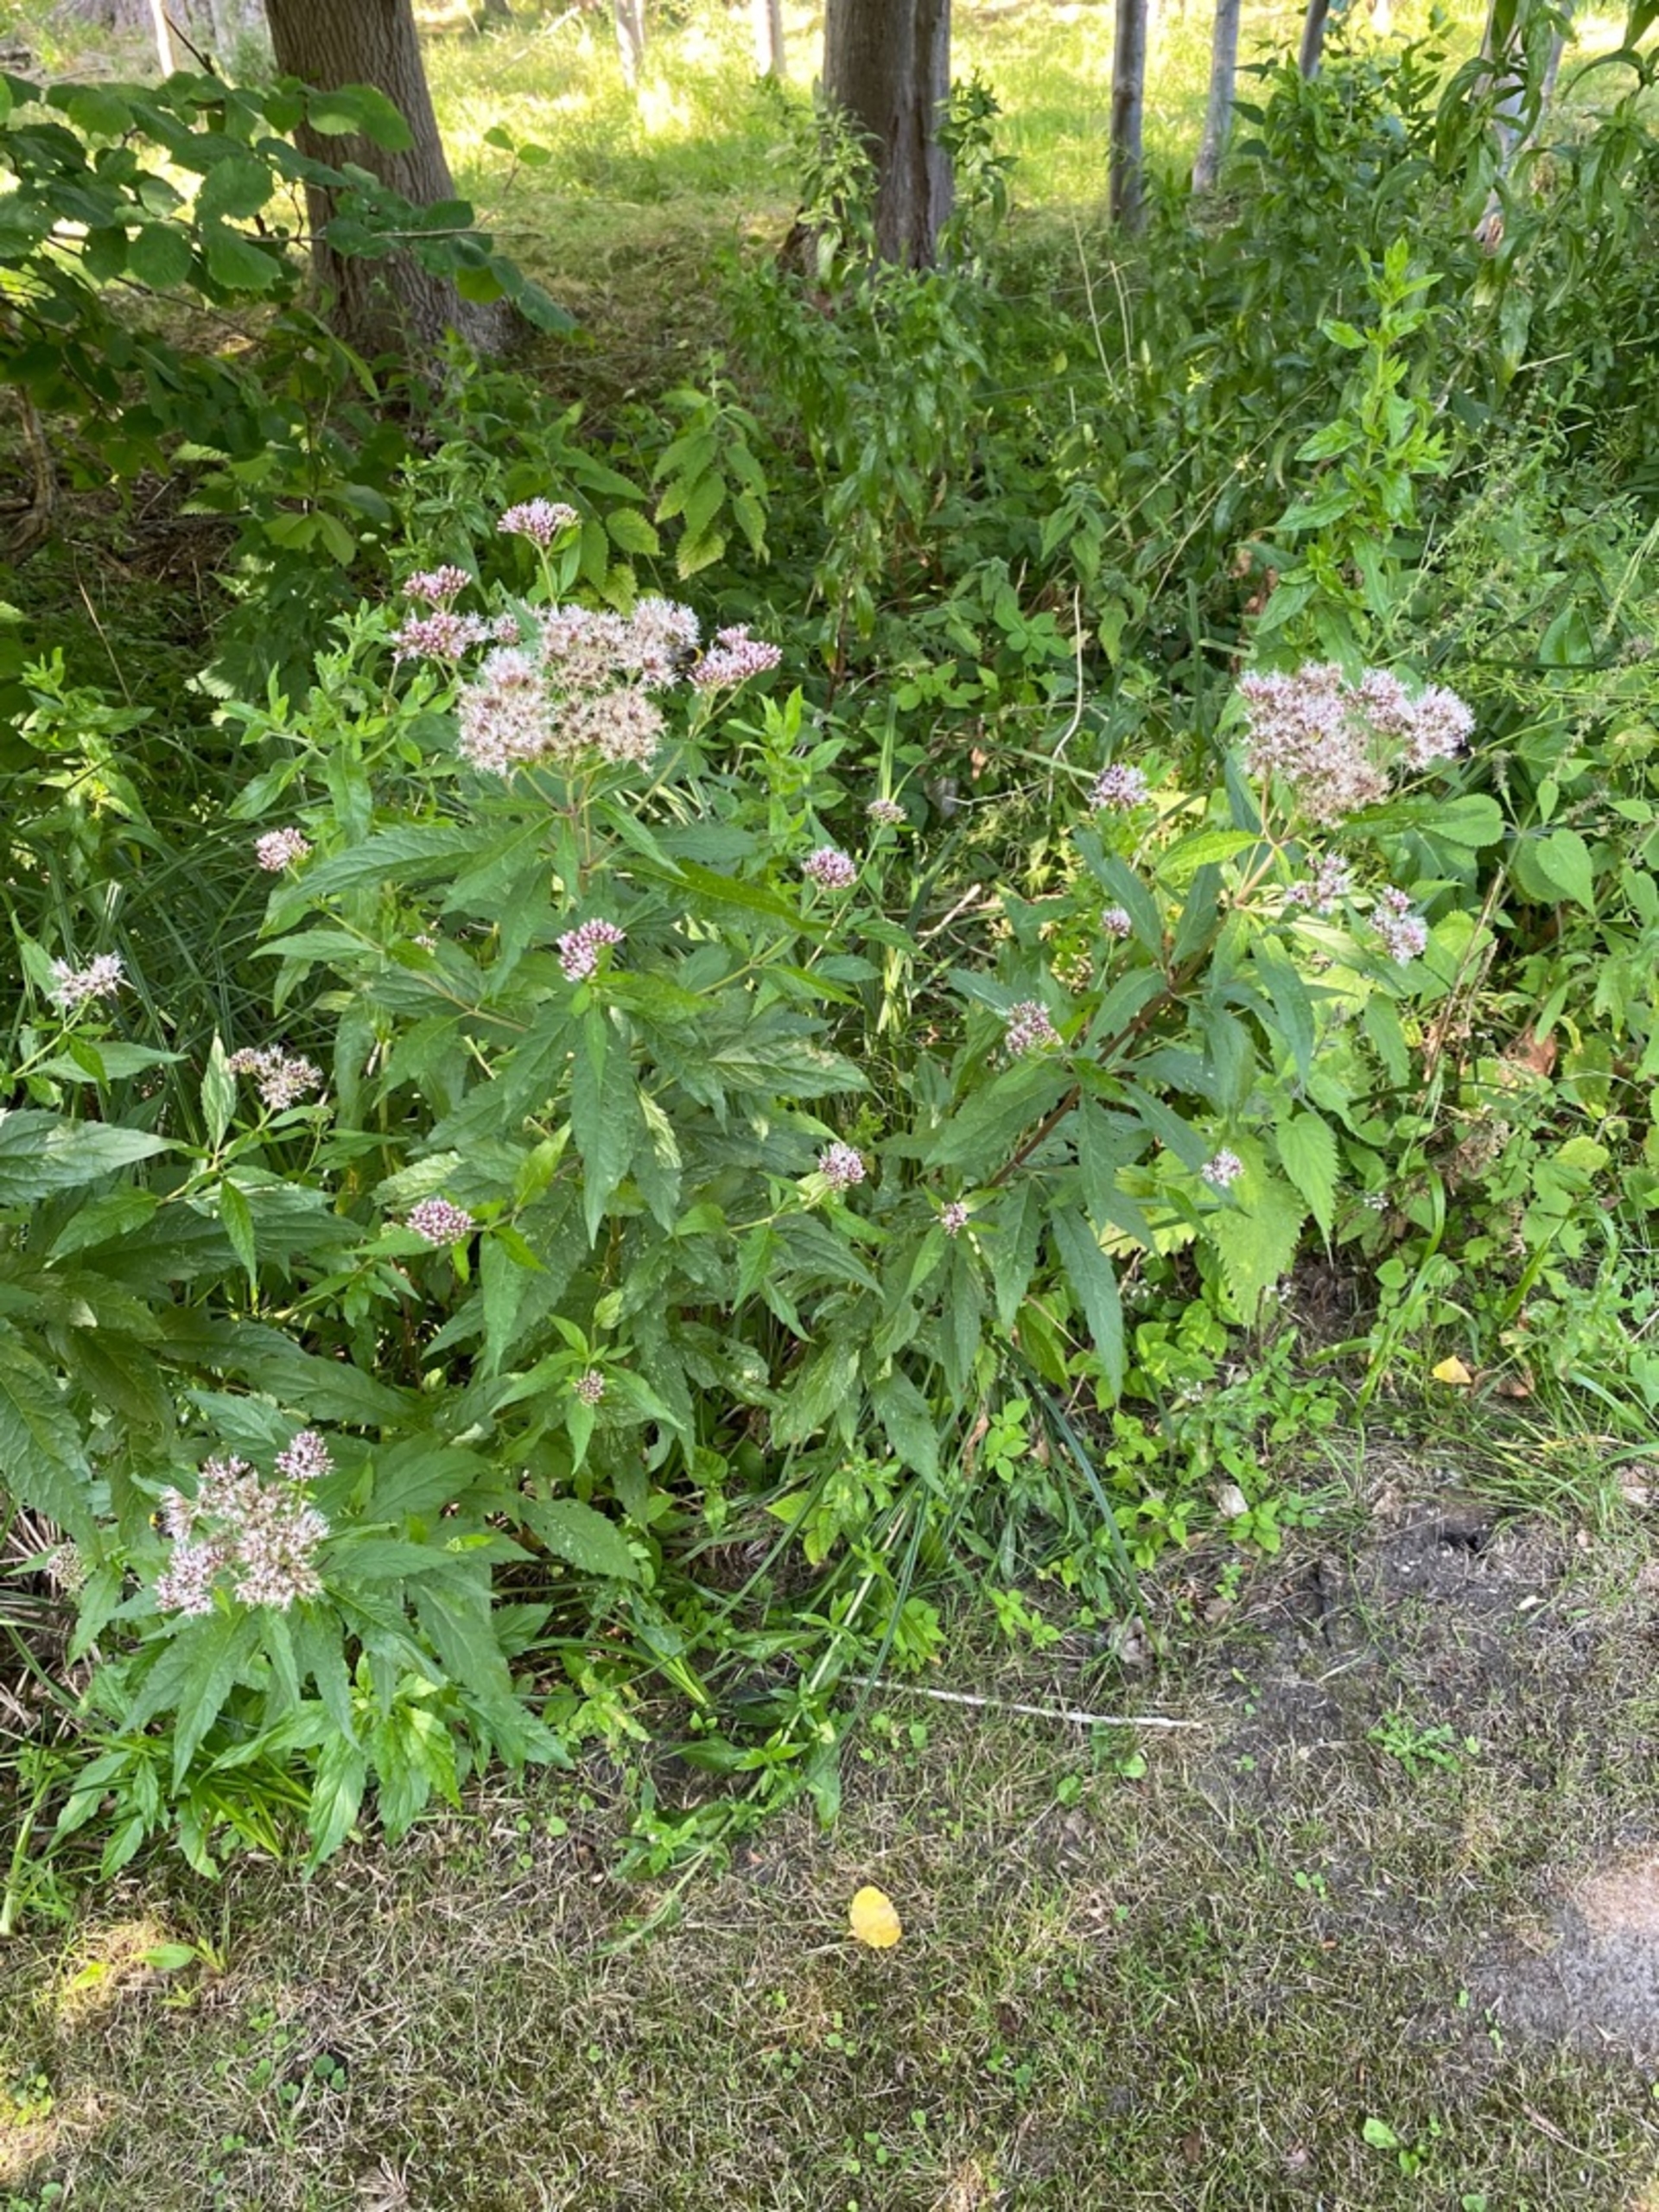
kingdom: Plantae
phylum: Tracheophyta
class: Magnoliopsida
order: Asterales
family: Asteraceae
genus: Eupatorium
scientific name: Eupatorium cannabinum
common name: Hjortetrøst
